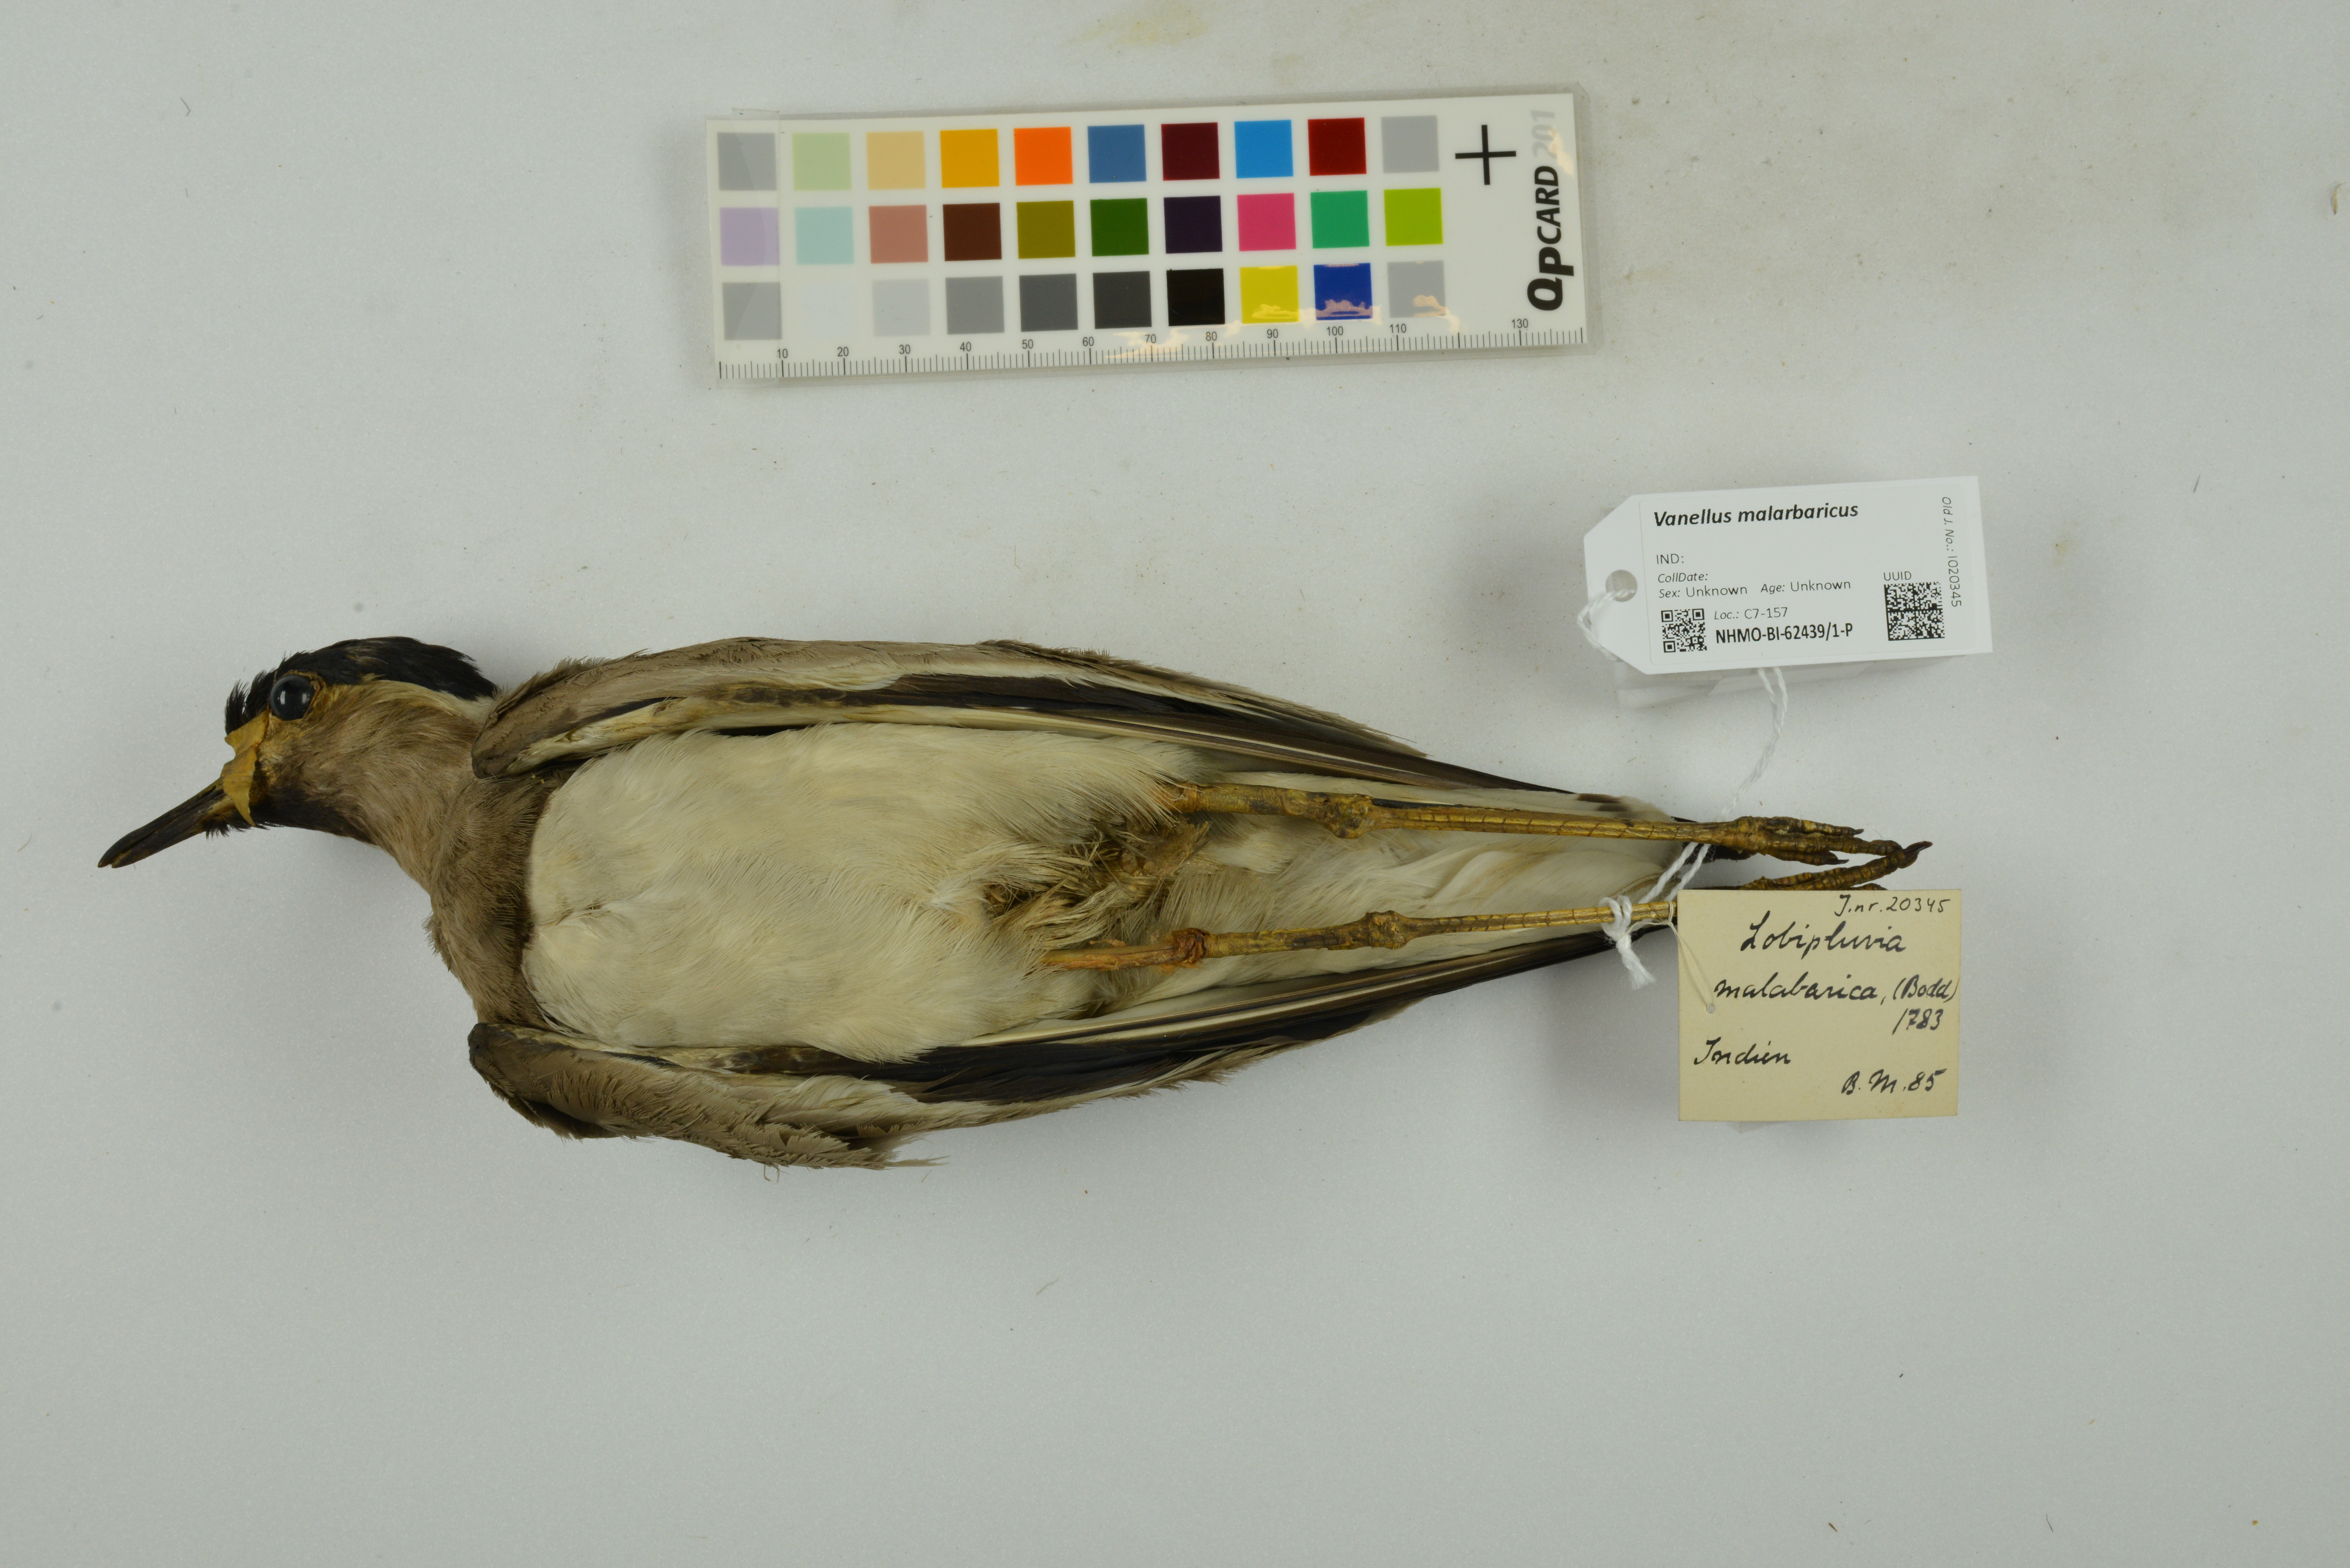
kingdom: Animalia
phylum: Chordata
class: Aves
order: Charadriiformes
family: Charadriidae
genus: Vanellus
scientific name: Vanellus malabaricus
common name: Yellow-wattled lapwing
